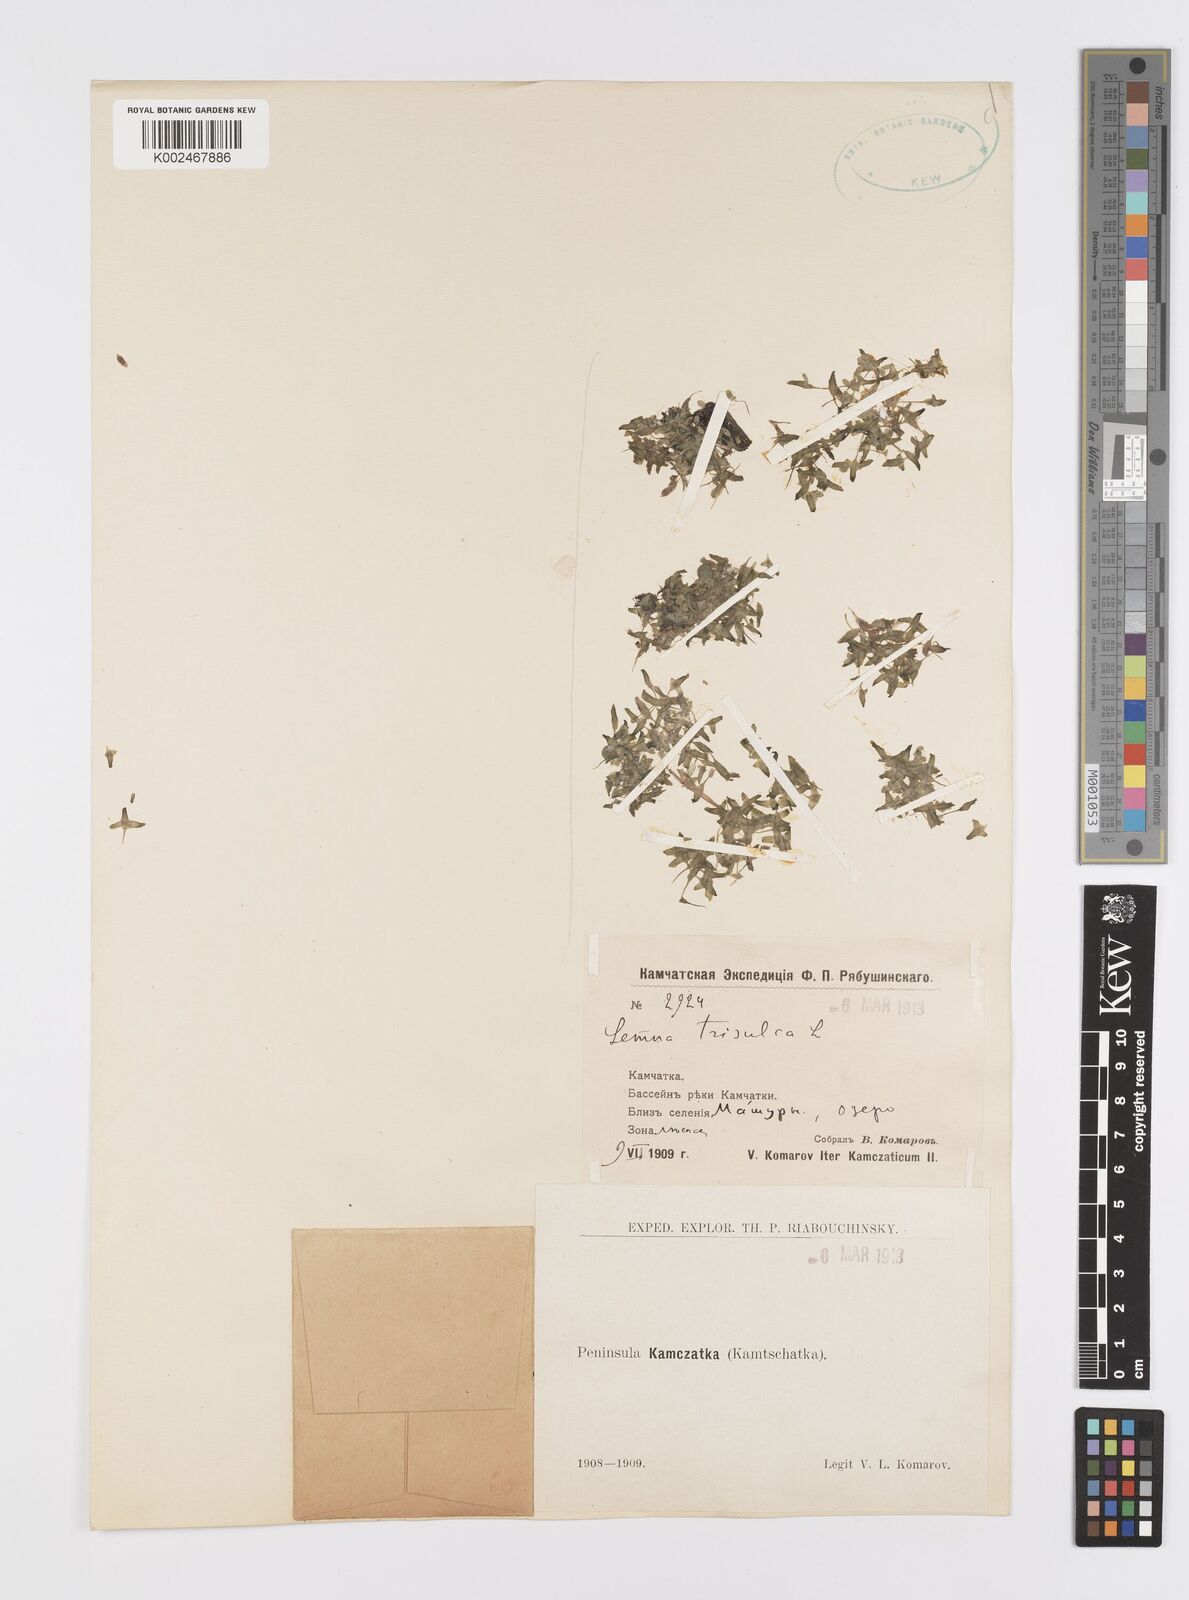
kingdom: Plantae
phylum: Tracheophyta
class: Liliopsida
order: Alismatales
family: Araceae
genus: Lemna
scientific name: Lemna trisulca
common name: Ivy-leaved duckweed
